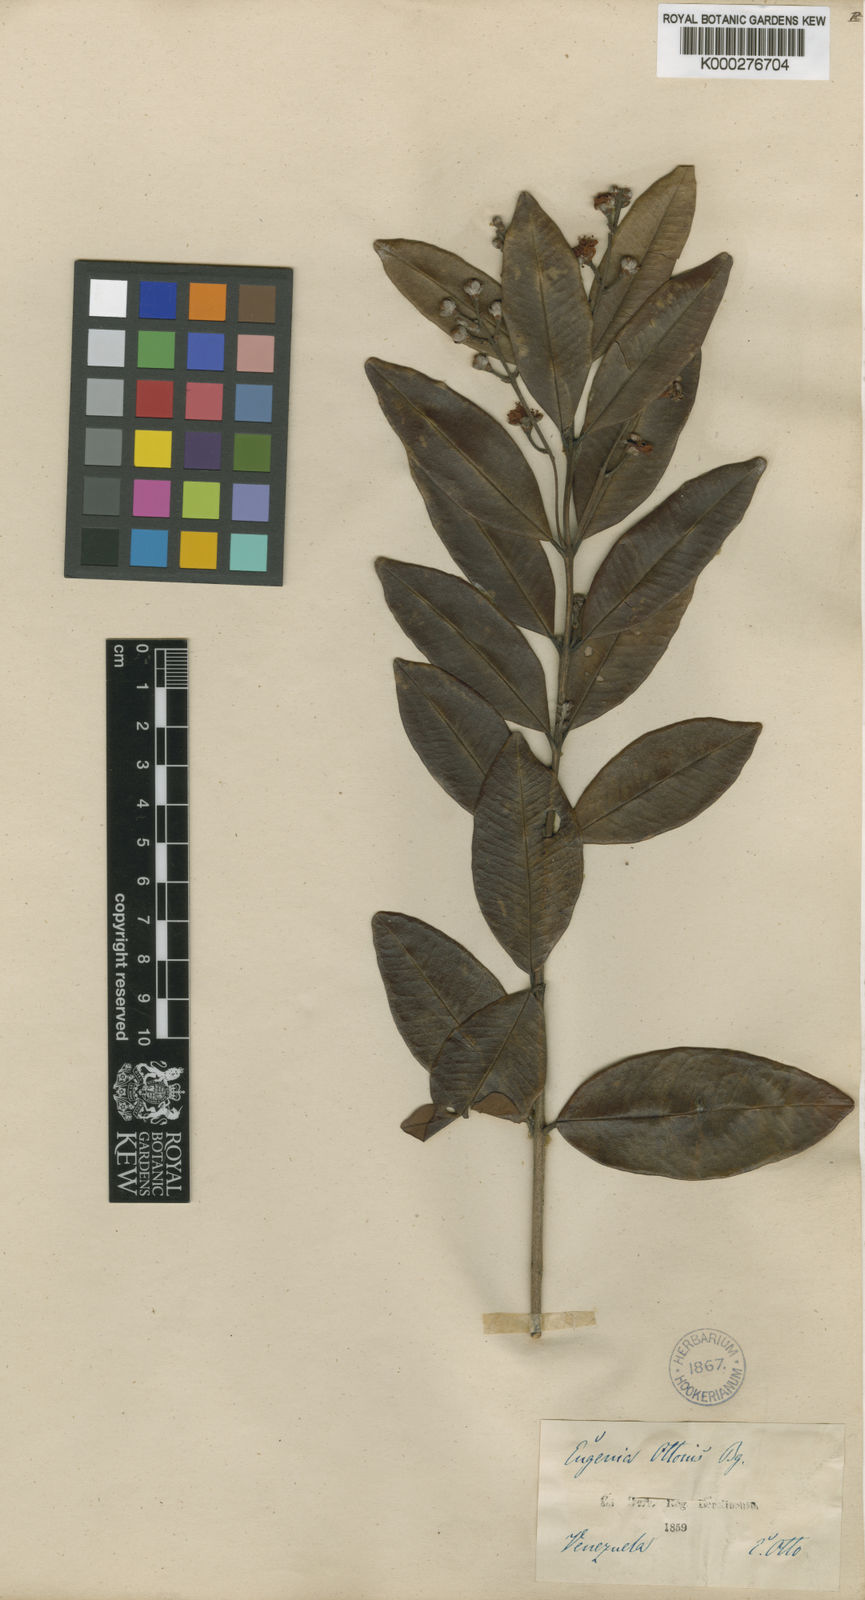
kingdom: Plantae
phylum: Tracheophyta
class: Magnoliopsida
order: Myrtales
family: Myrtaceae
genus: Eugenia
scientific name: Eugenia pubescens
